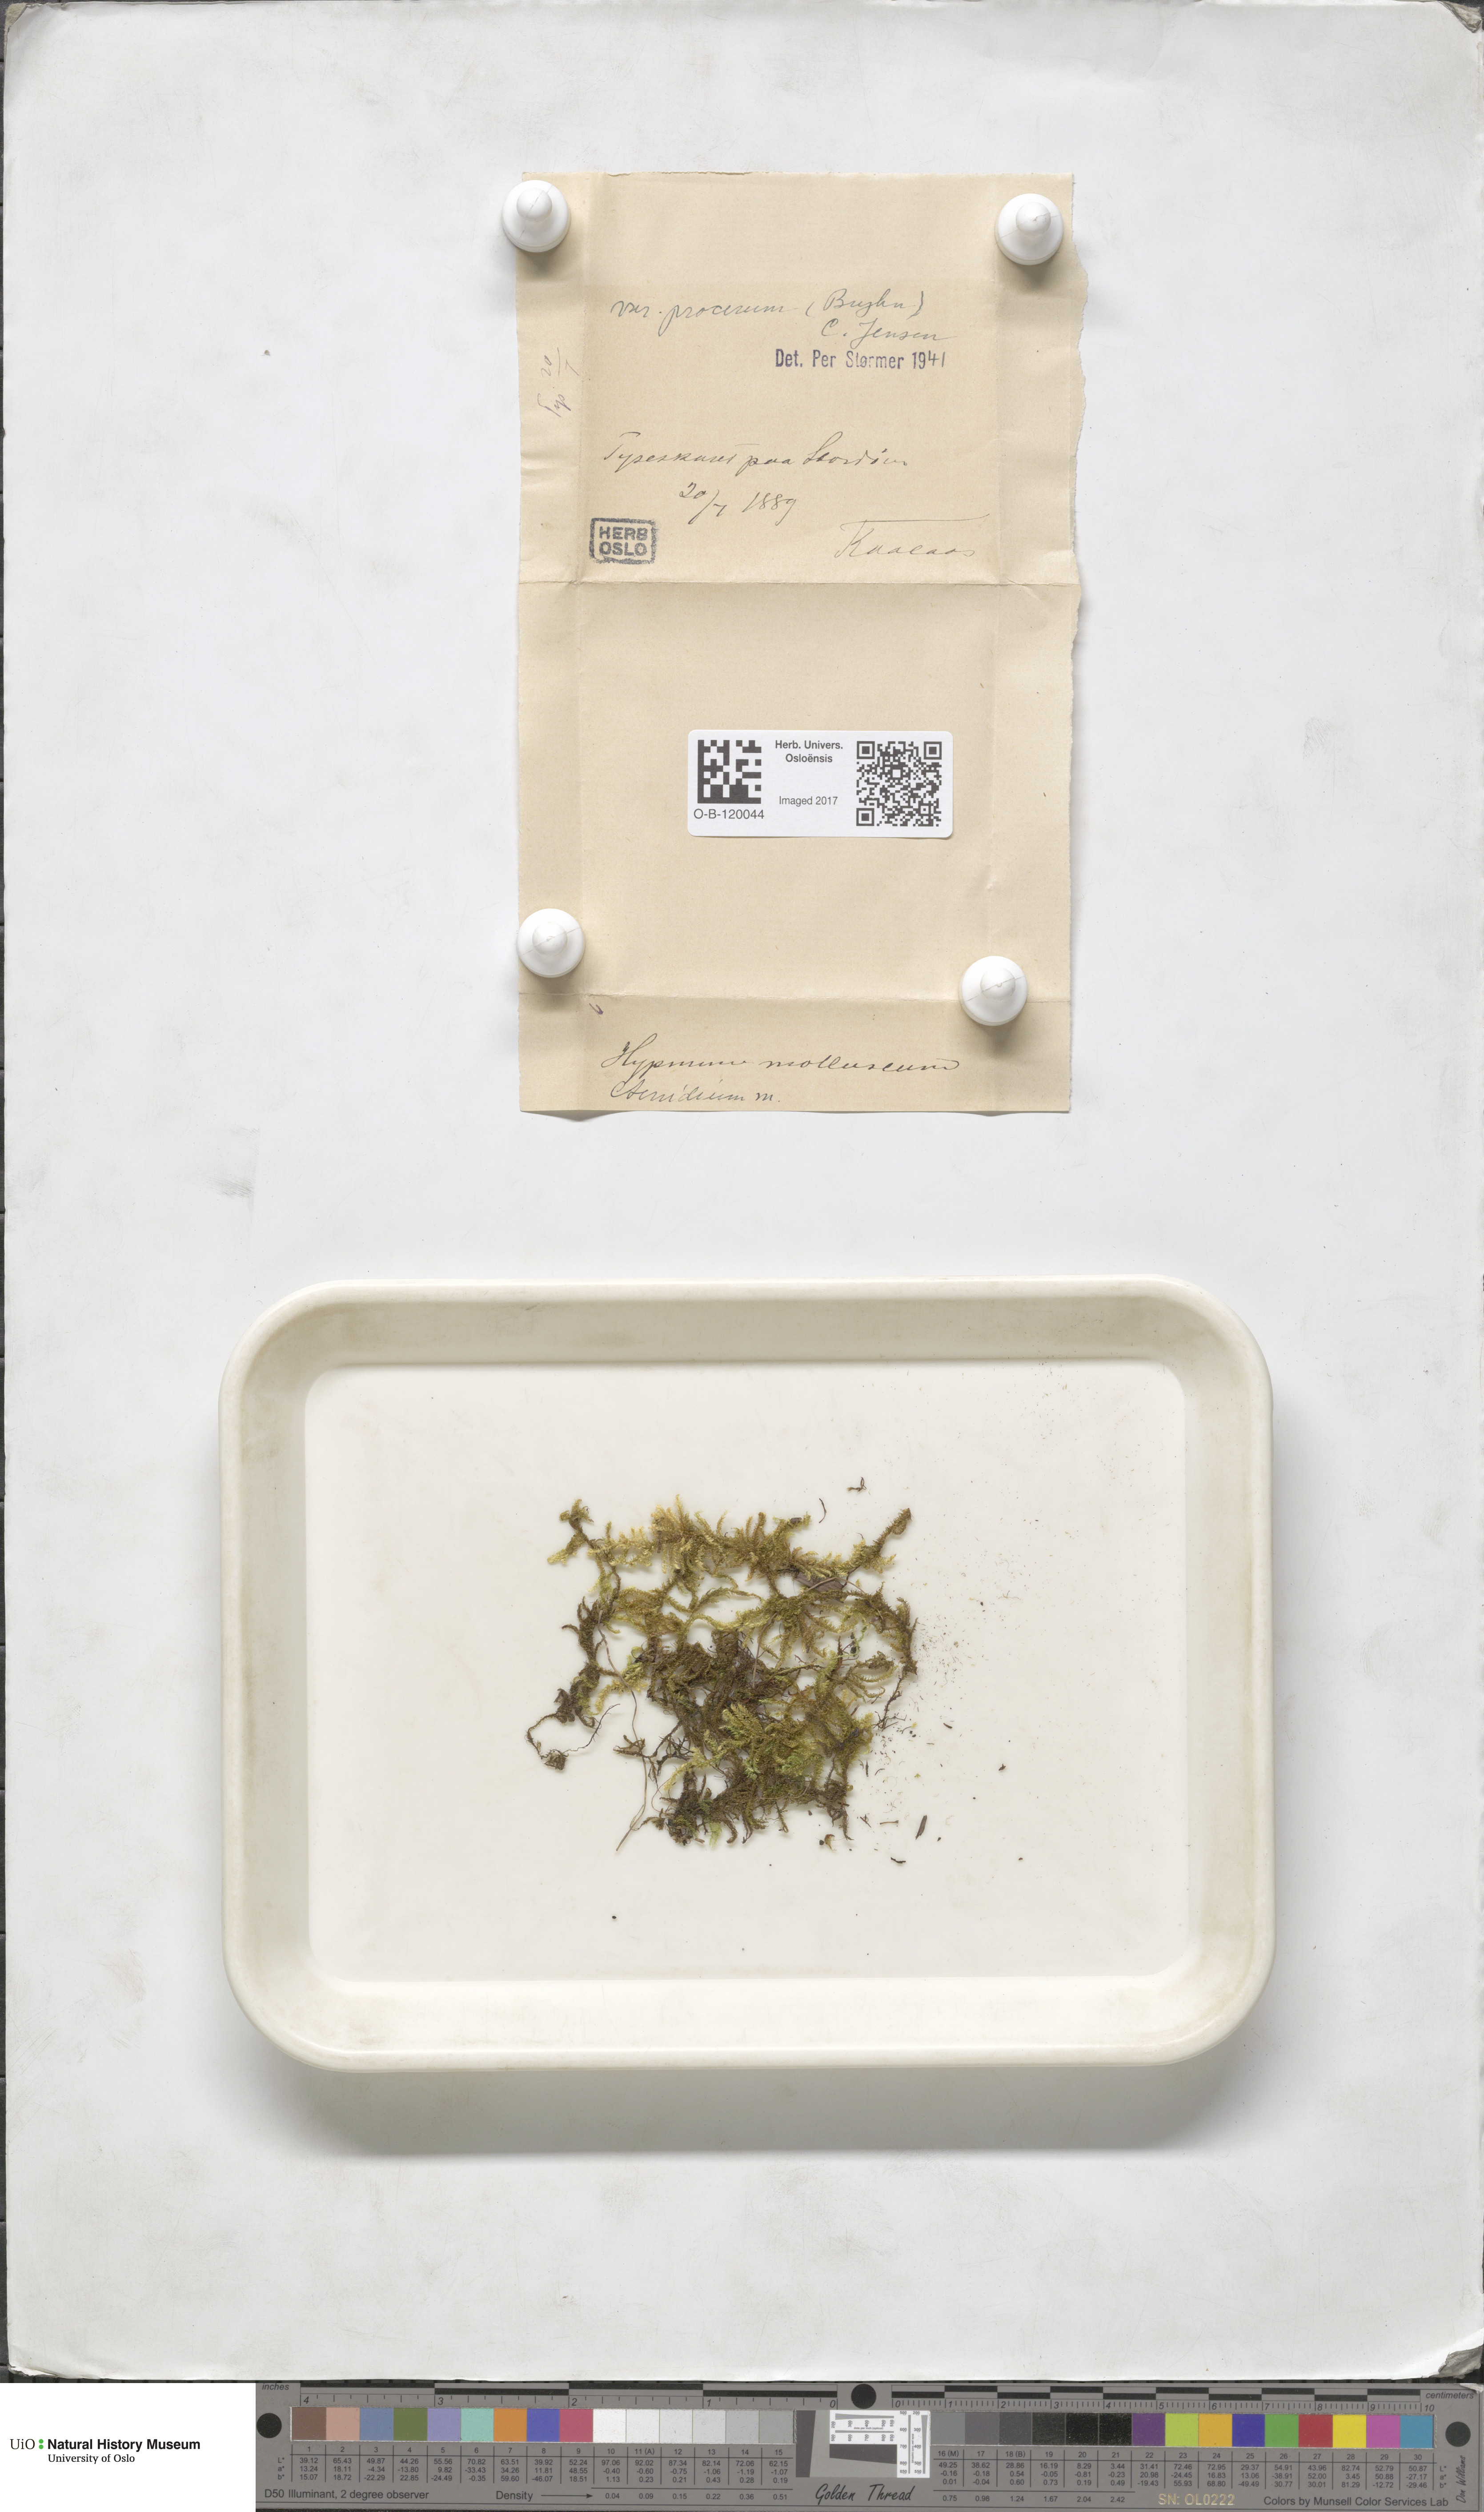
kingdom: Plantae
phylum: Bryophyta
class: Bryopsida
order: Hypnales
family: Myuriaceae
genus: Ctenidium
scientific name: Ctenidium molluscum
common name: Chalk comb-moss
